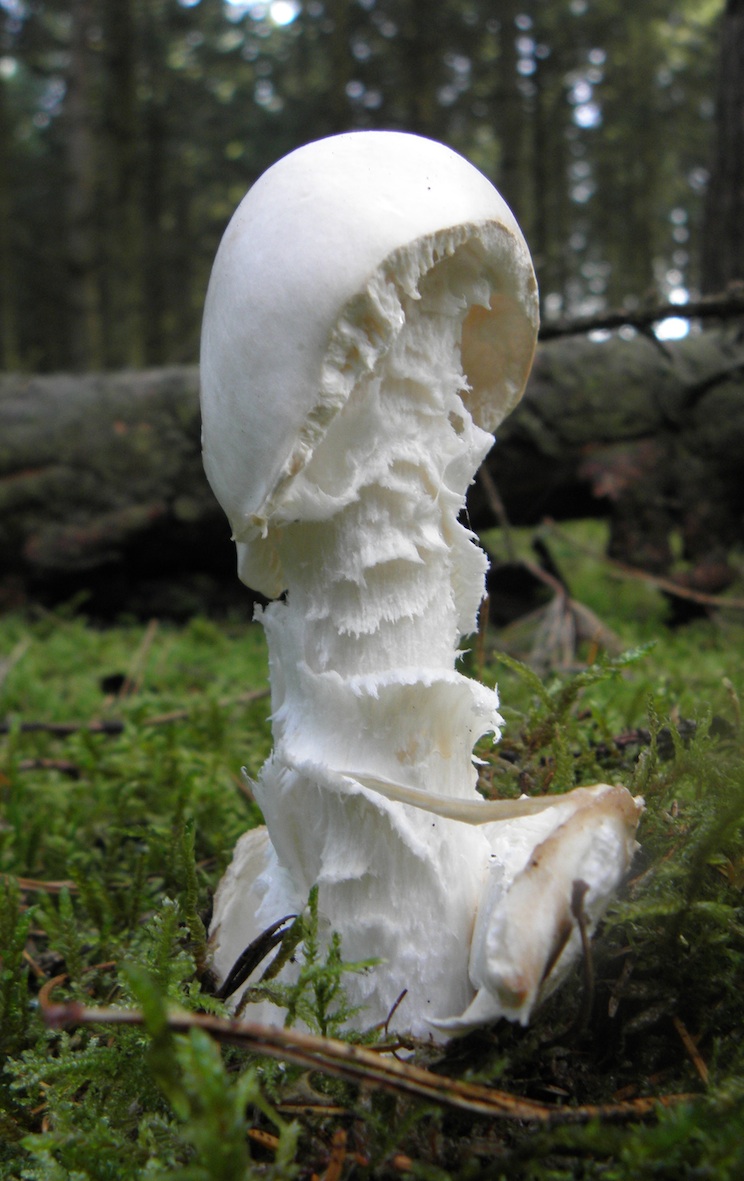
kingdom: Fungi
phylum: Basidiomycota
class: Agaricomycetes
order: Agaricales
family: Amanitaceae
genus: Amanita
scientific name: Amanita virosa
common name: snehvid fluesvamp
